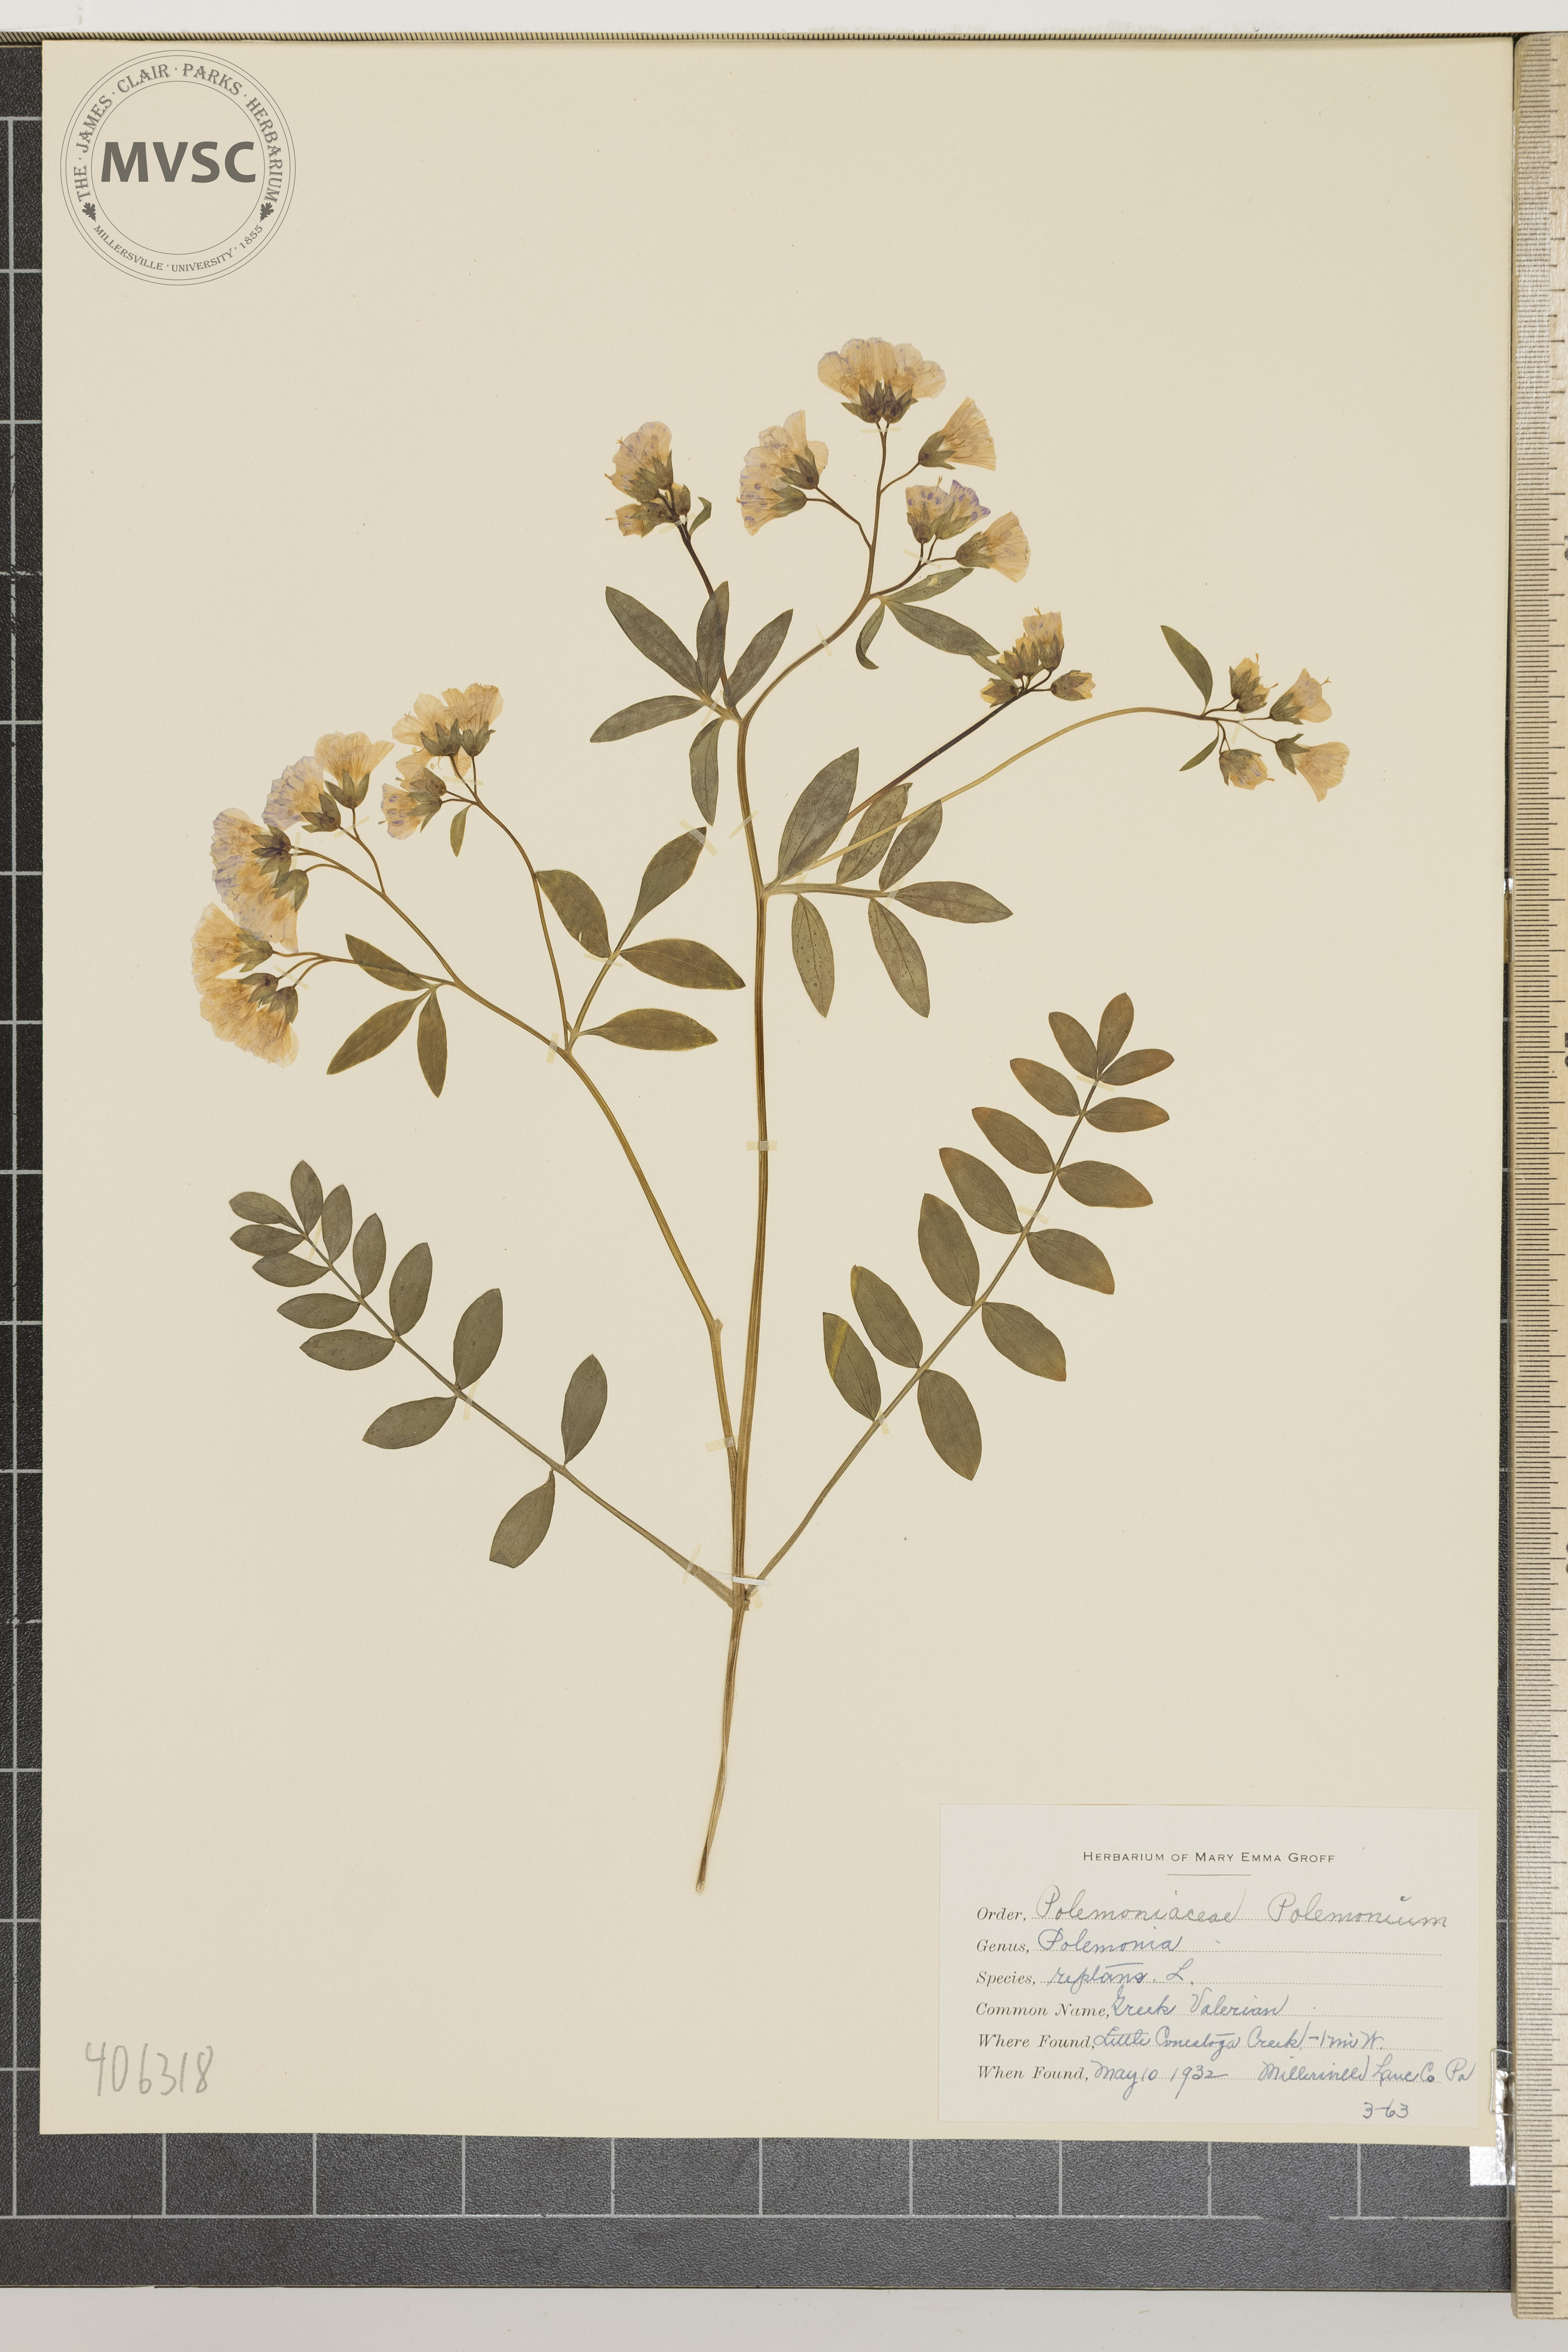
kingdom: Plantae
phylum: Tracheophyta
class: Magnoliopsida
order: Ericales
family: Polemoniaceae
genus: Polemonium
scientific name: Polemonium reptans
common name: Greek Valerian
